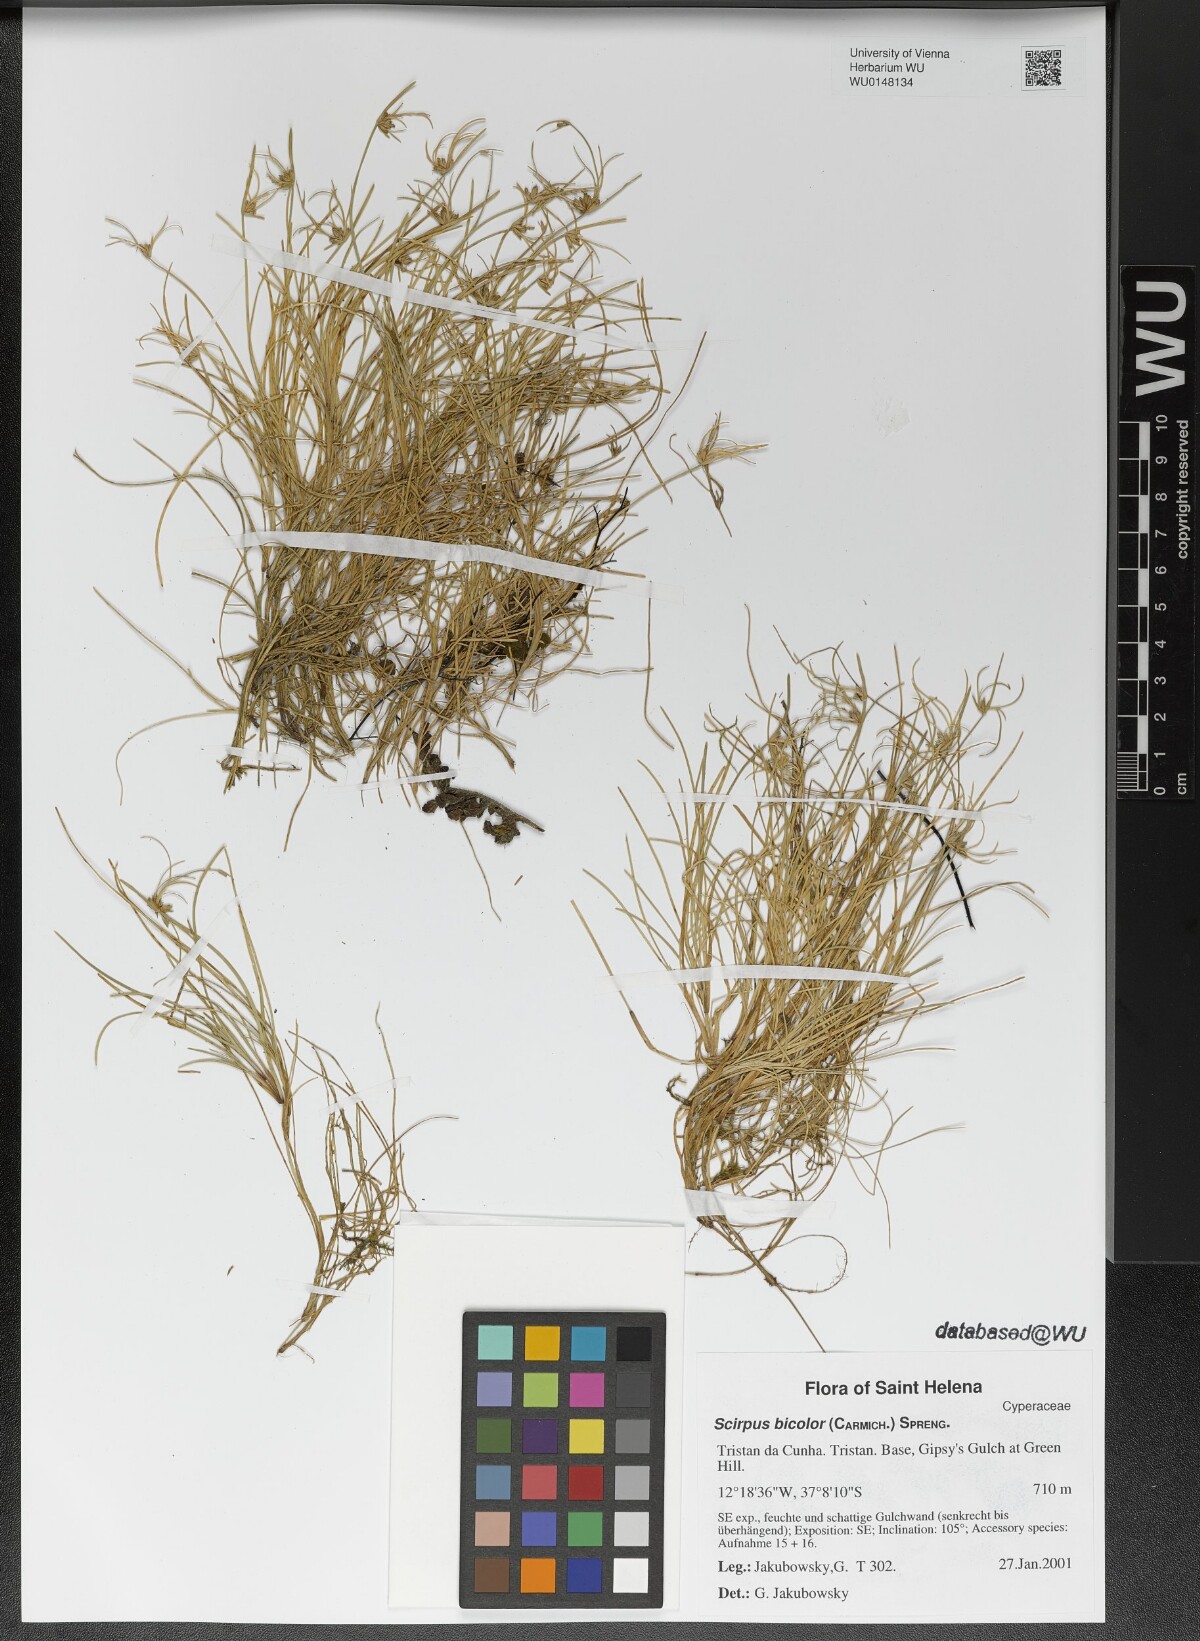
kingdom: Plantae
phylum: Tracheophyta
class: Liliopsida
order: Poales
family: Cyperaceae
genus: Isolepis
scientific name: Isolepis bicolor
